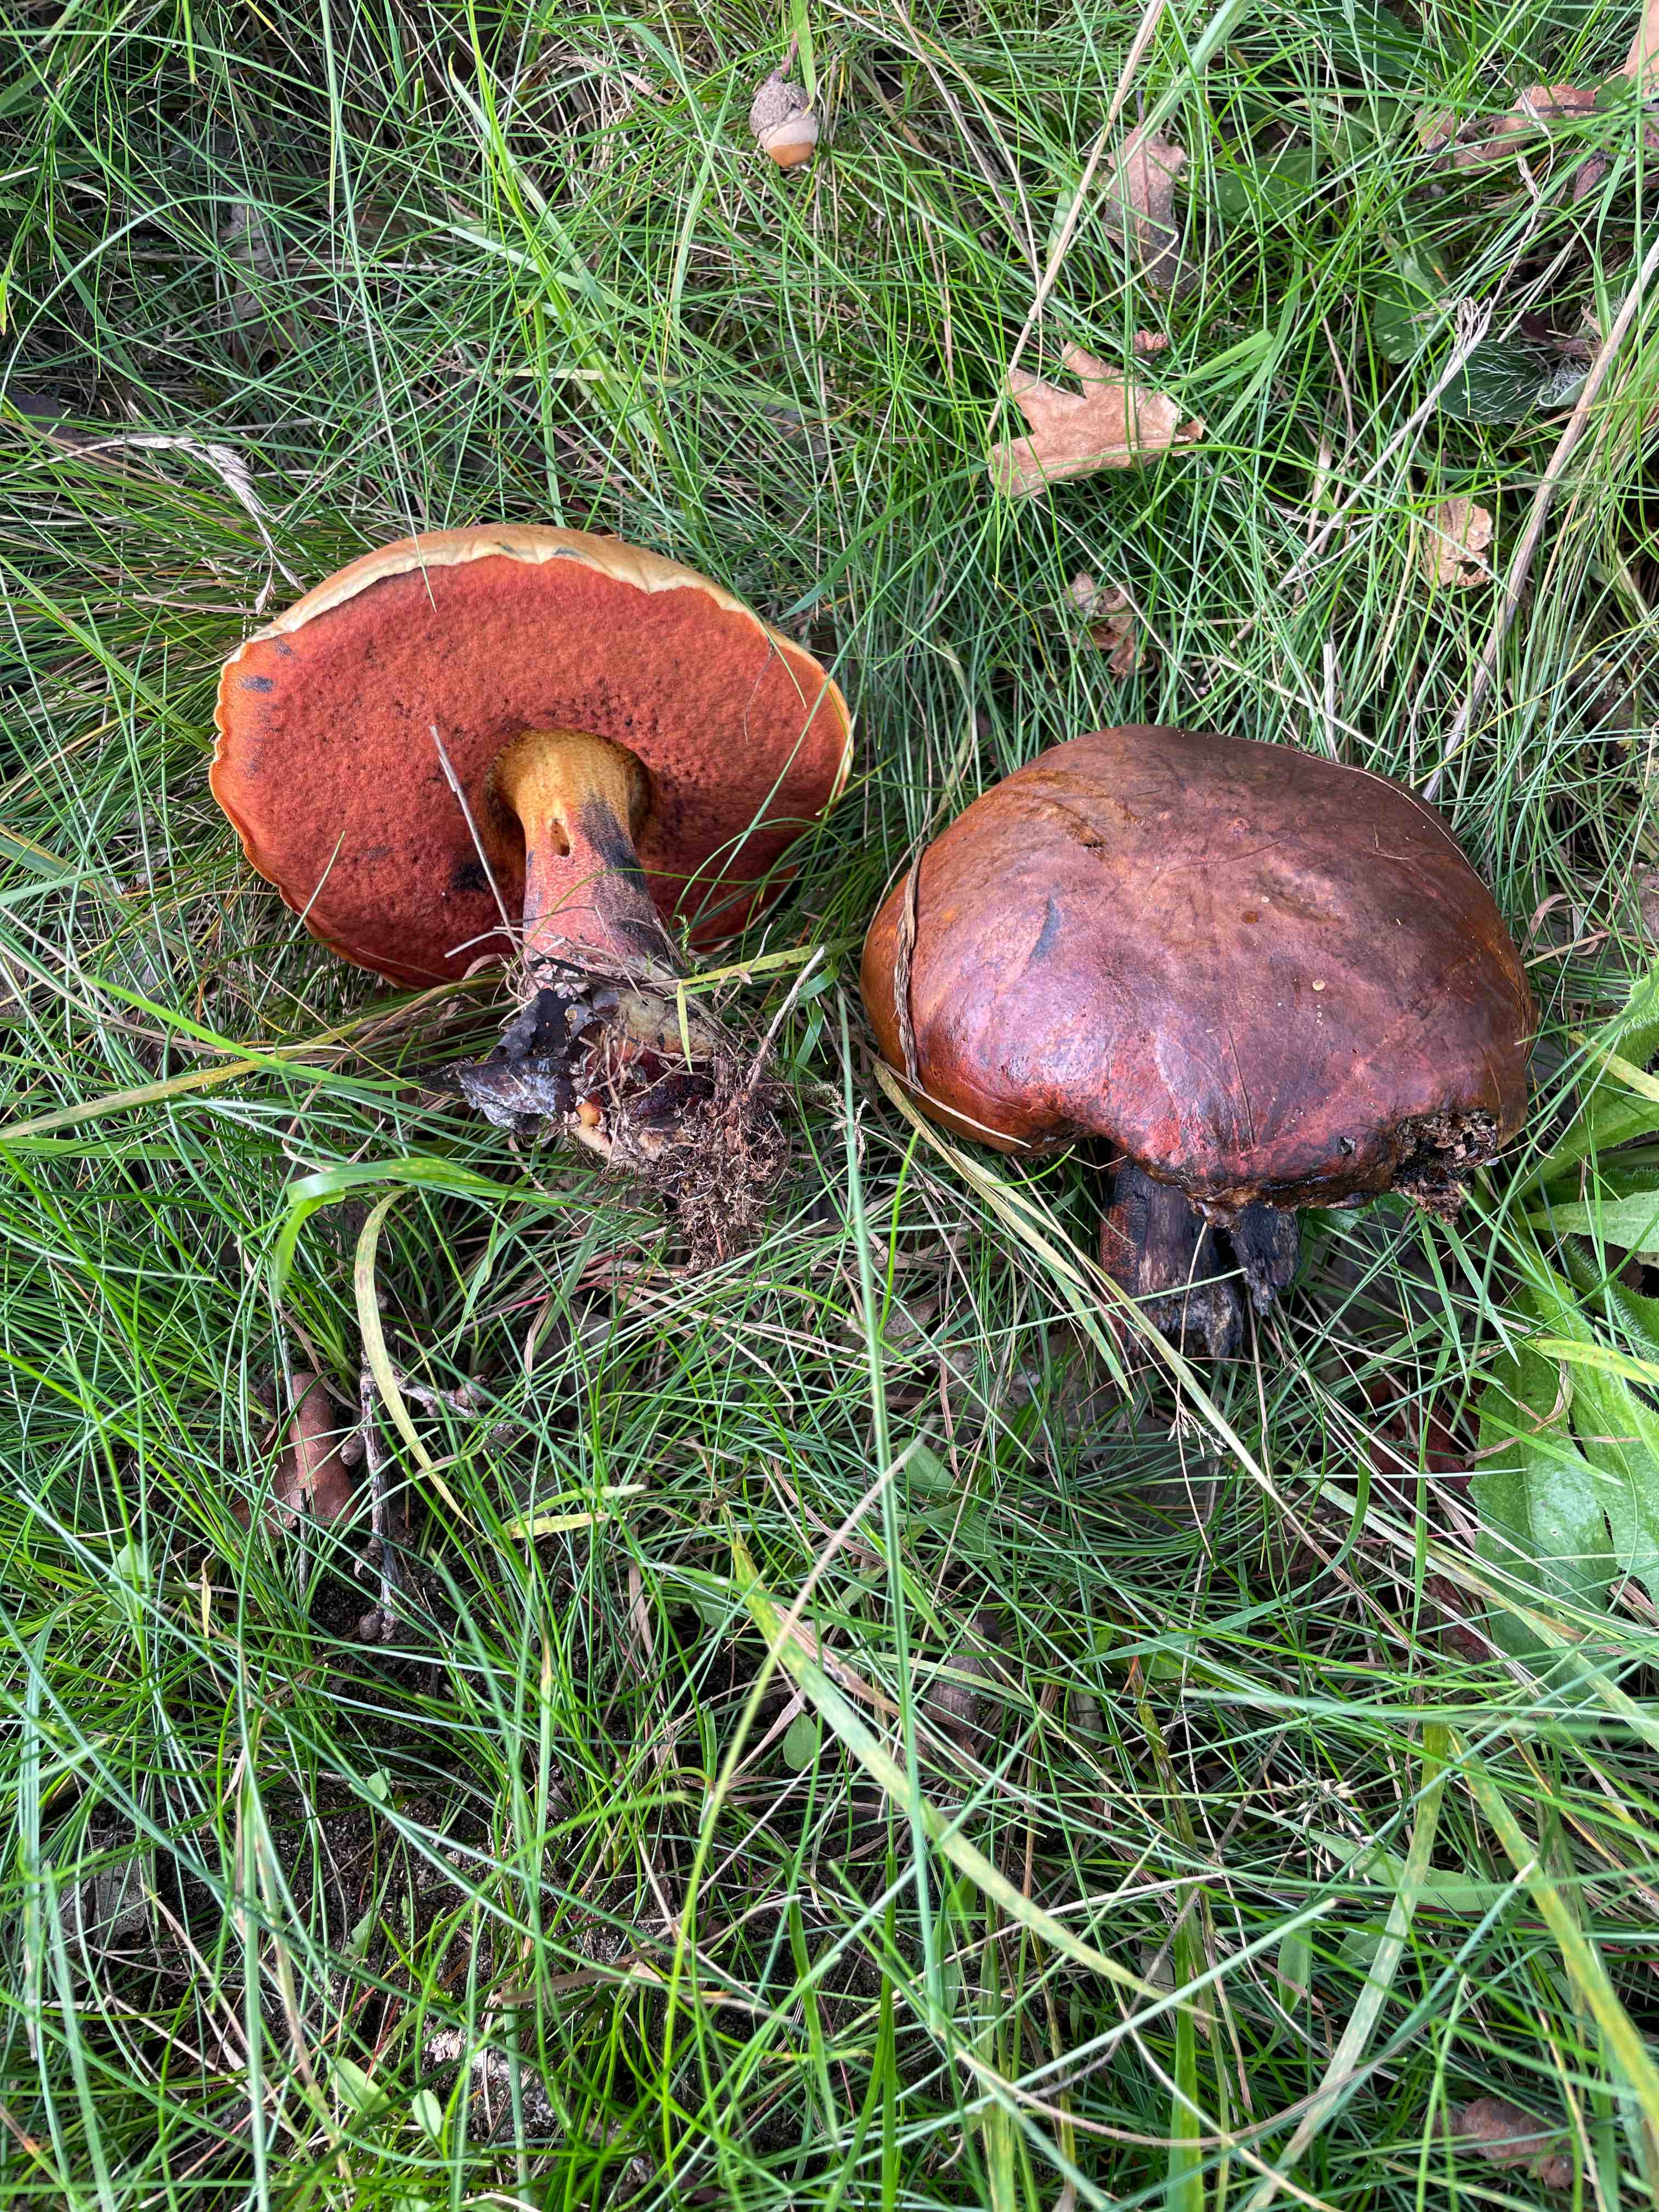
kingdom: Fungi
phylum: Basidiomycota
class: Agaricomycetes
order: Boletales
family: Boletaceae
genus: Neoboletus
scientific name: Neoboletus erythropus
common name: punktstokket indigorørhat
